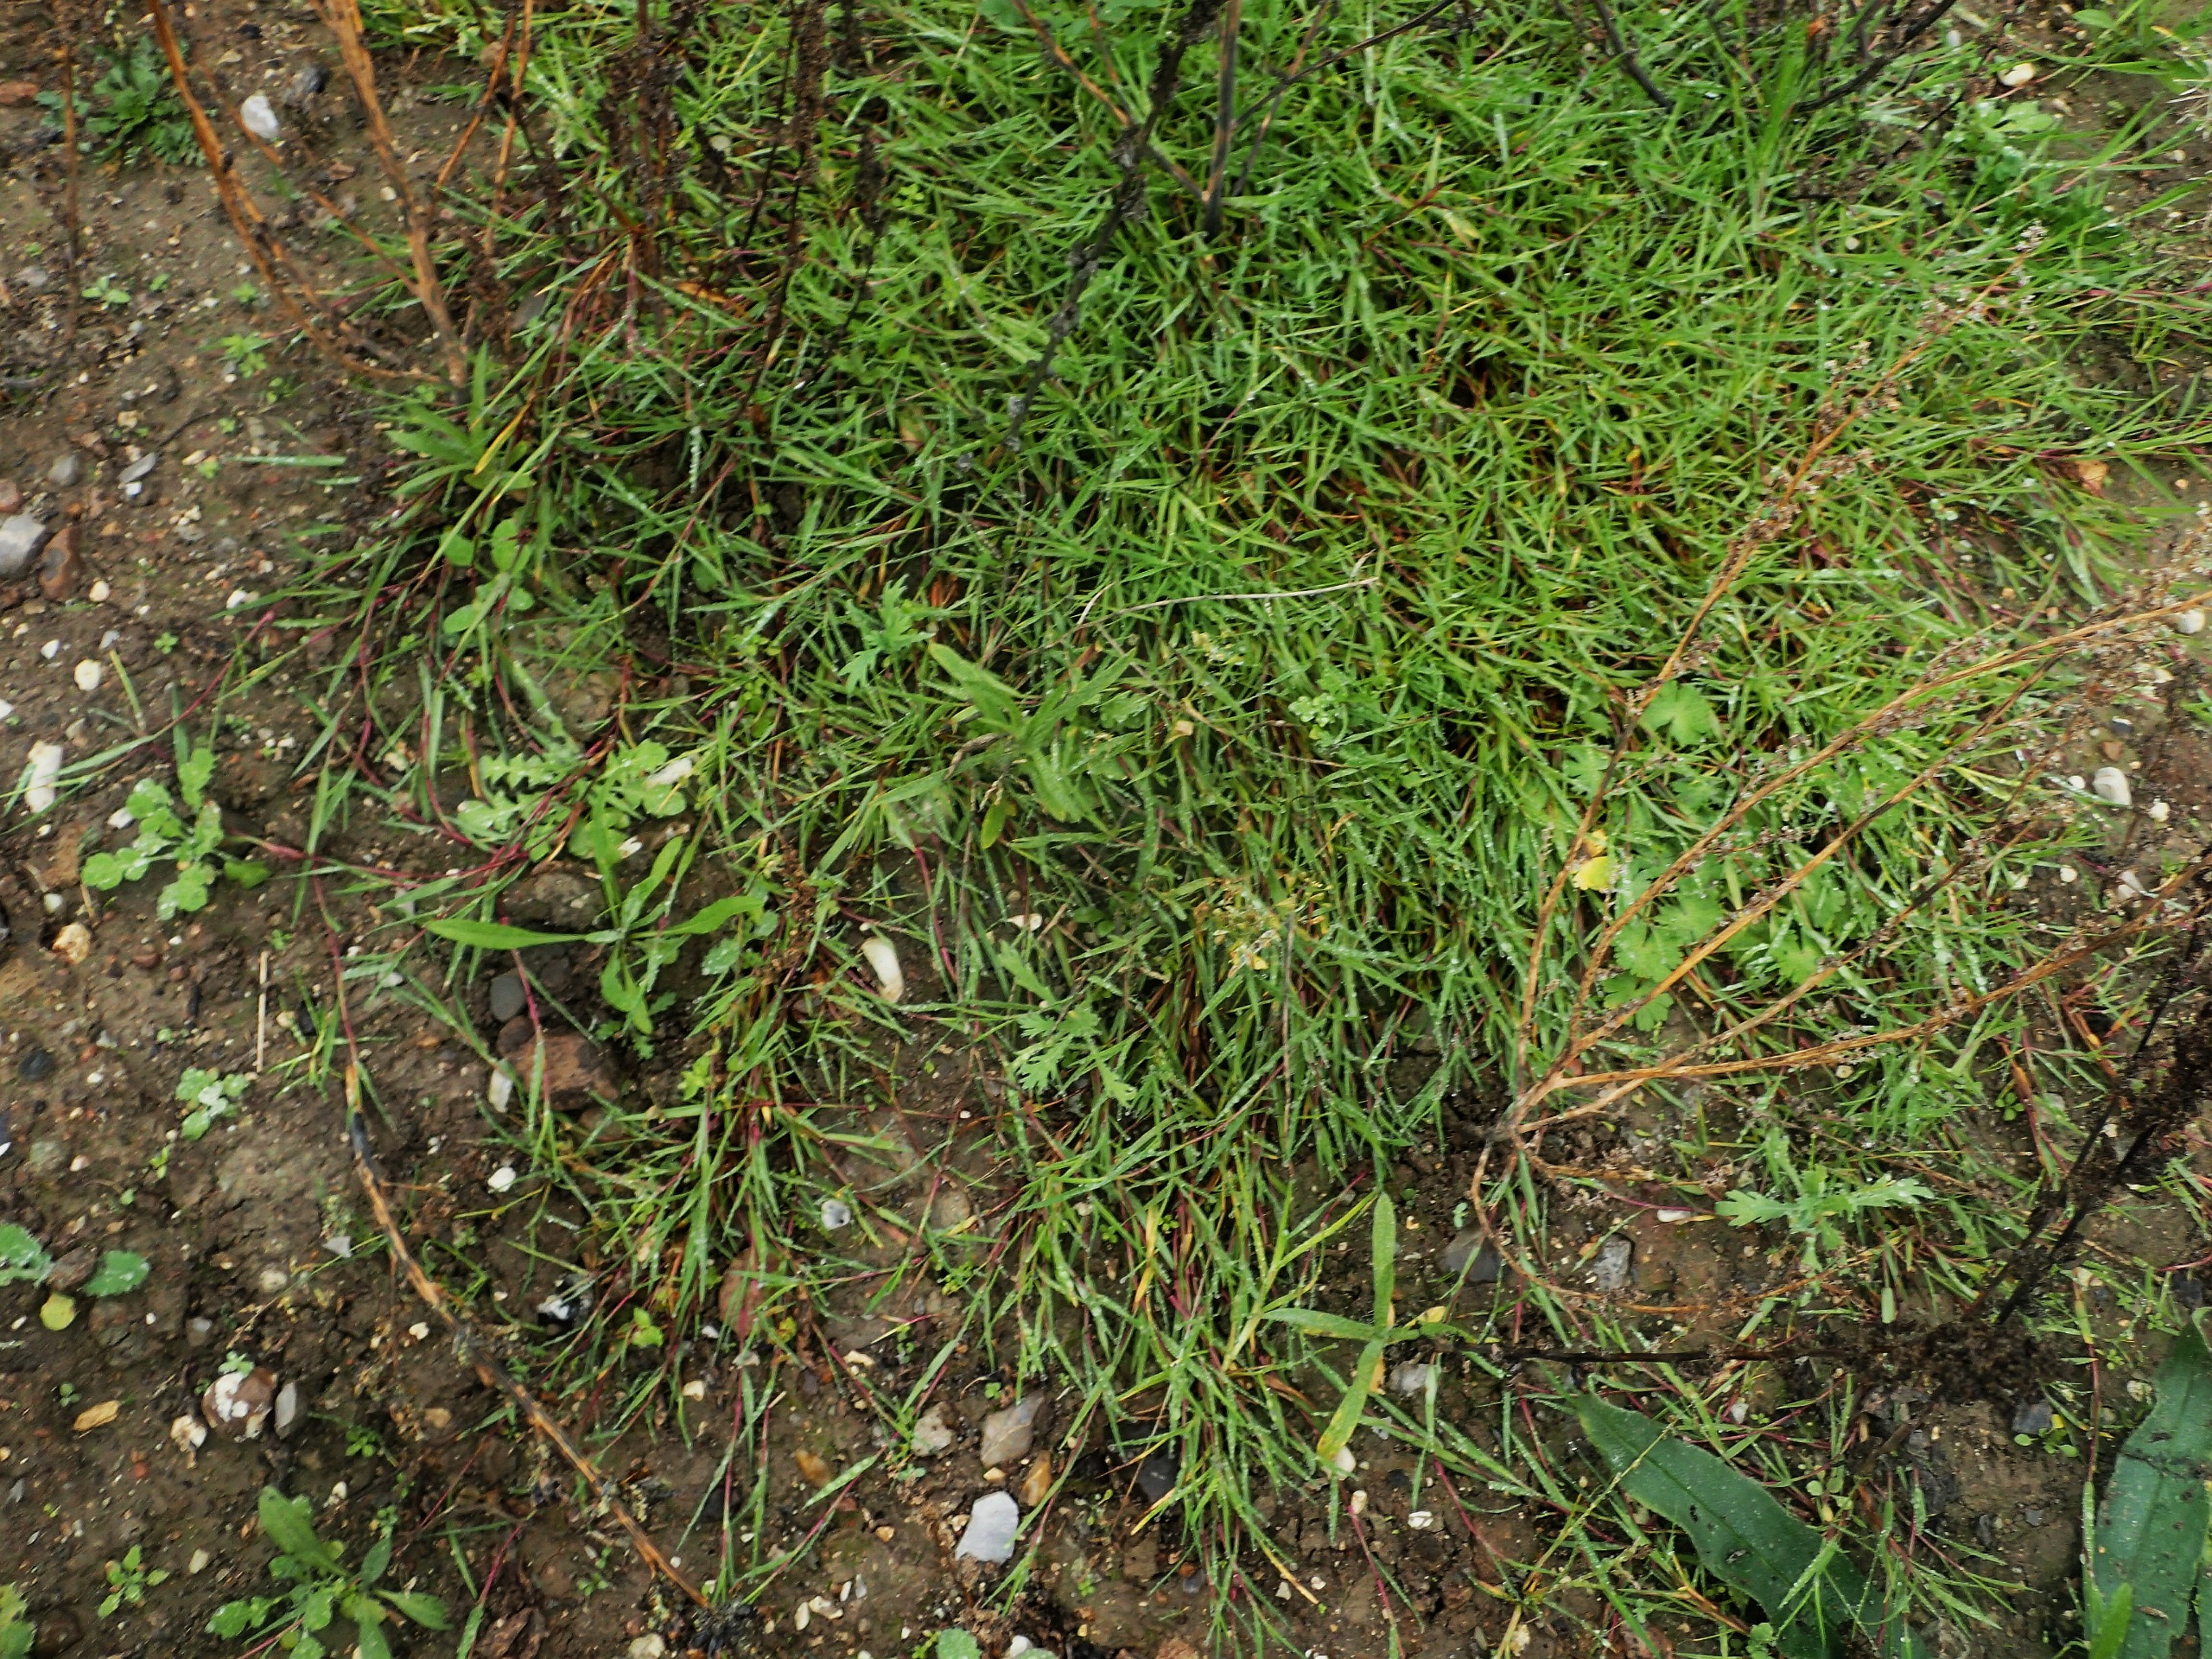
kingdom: Plantae
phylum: Tracheophyta
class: Liliopsida
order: Poales
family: Poaceae
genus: Agrostis
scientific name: Agrostis stolonifera
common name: Kryb-hvene
